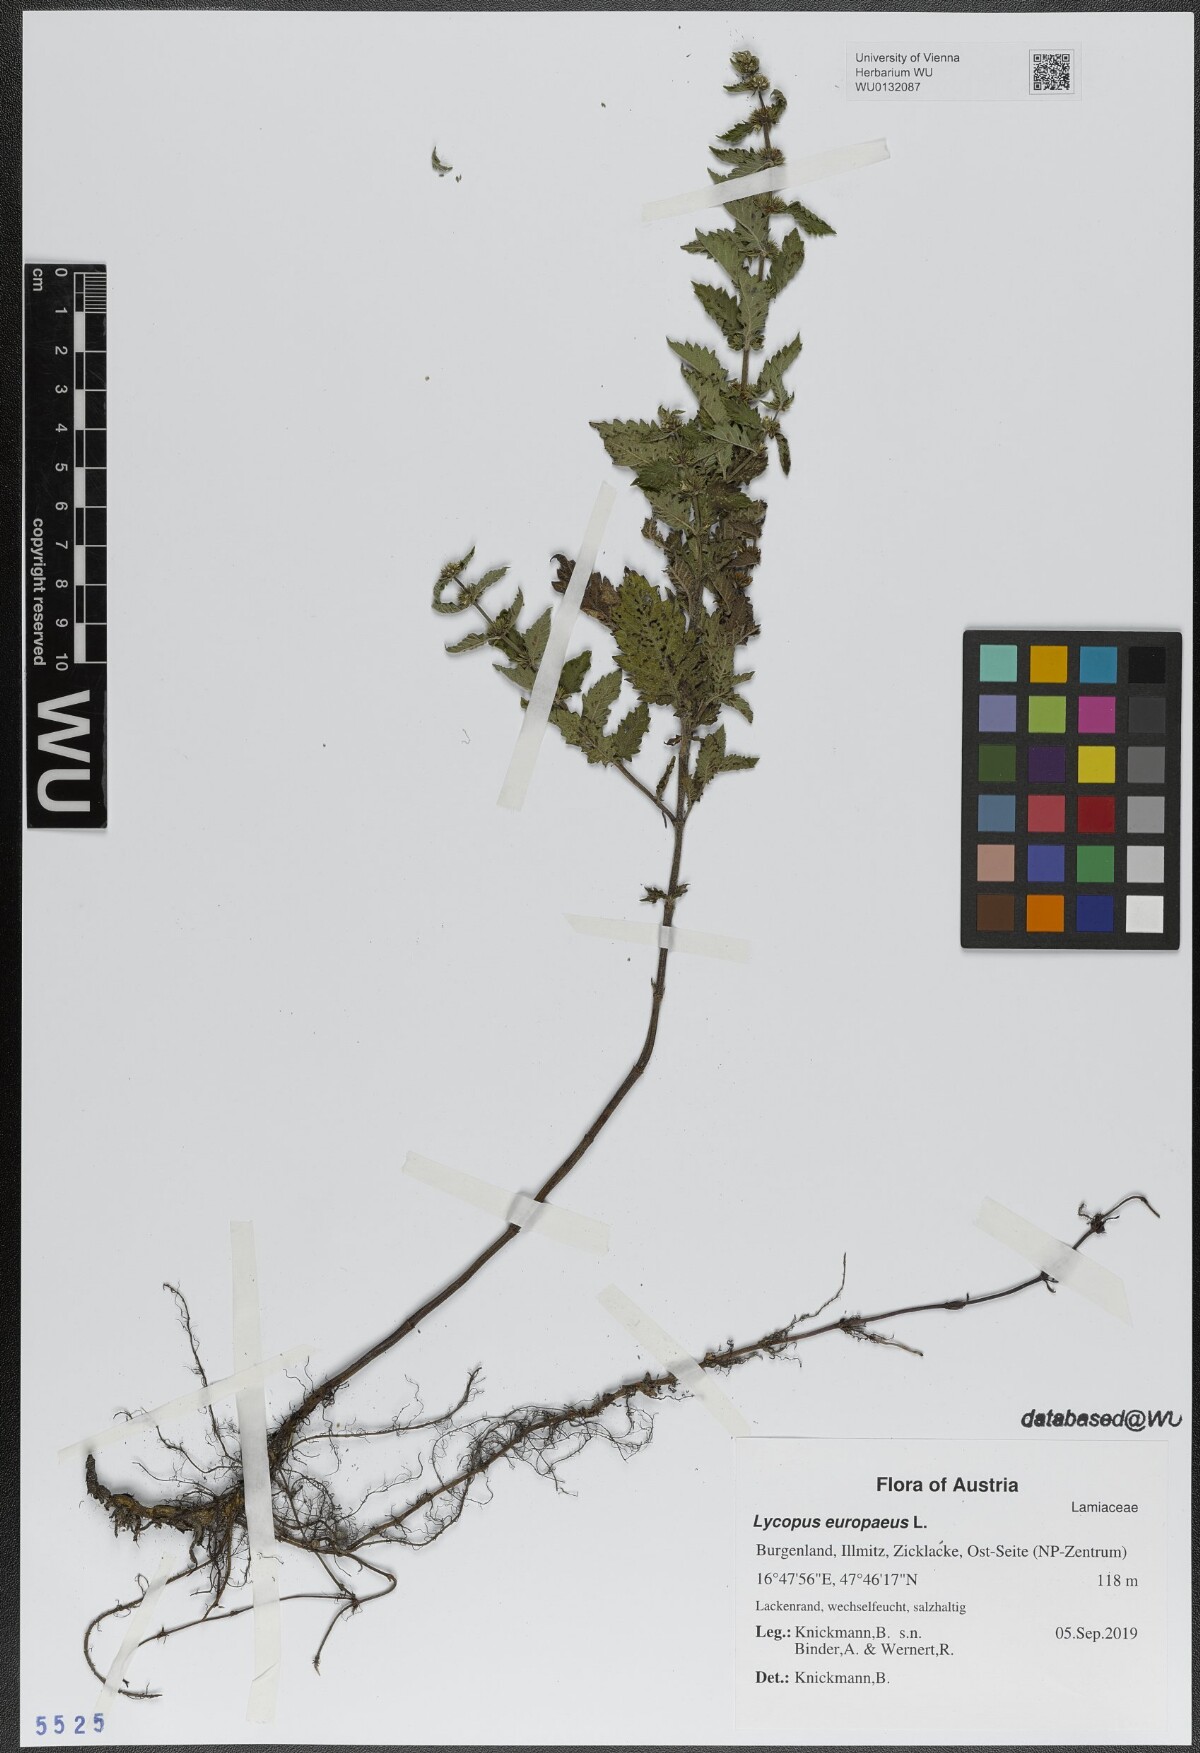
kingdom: Plantae
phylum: Tracheophyta
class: Magnoliopsida
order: Lamiales
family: Lamiaceae
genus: Lycopus
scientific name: Lycopus europaeus
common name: European bugleweed
